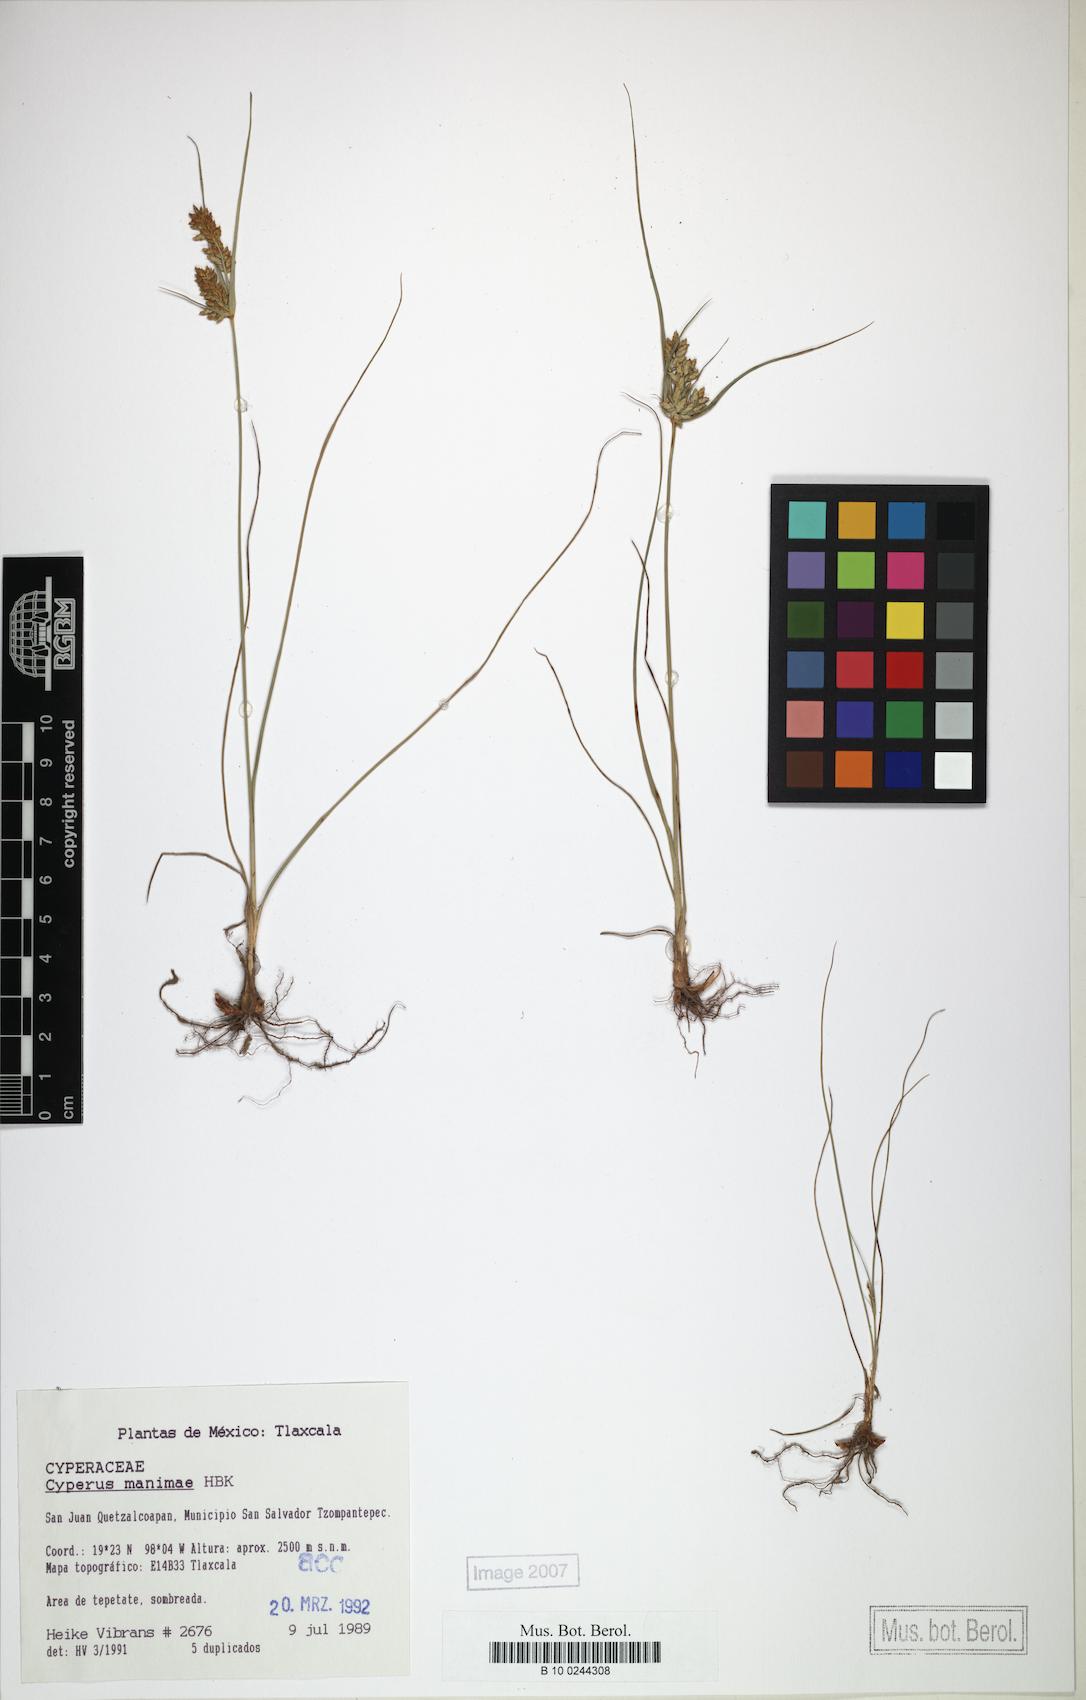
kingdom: Plantae
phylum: Tracheophyta
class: Liliopsida
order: Poales
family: Cyperaceae
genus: Cyperus
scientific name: Cyperus manimae
